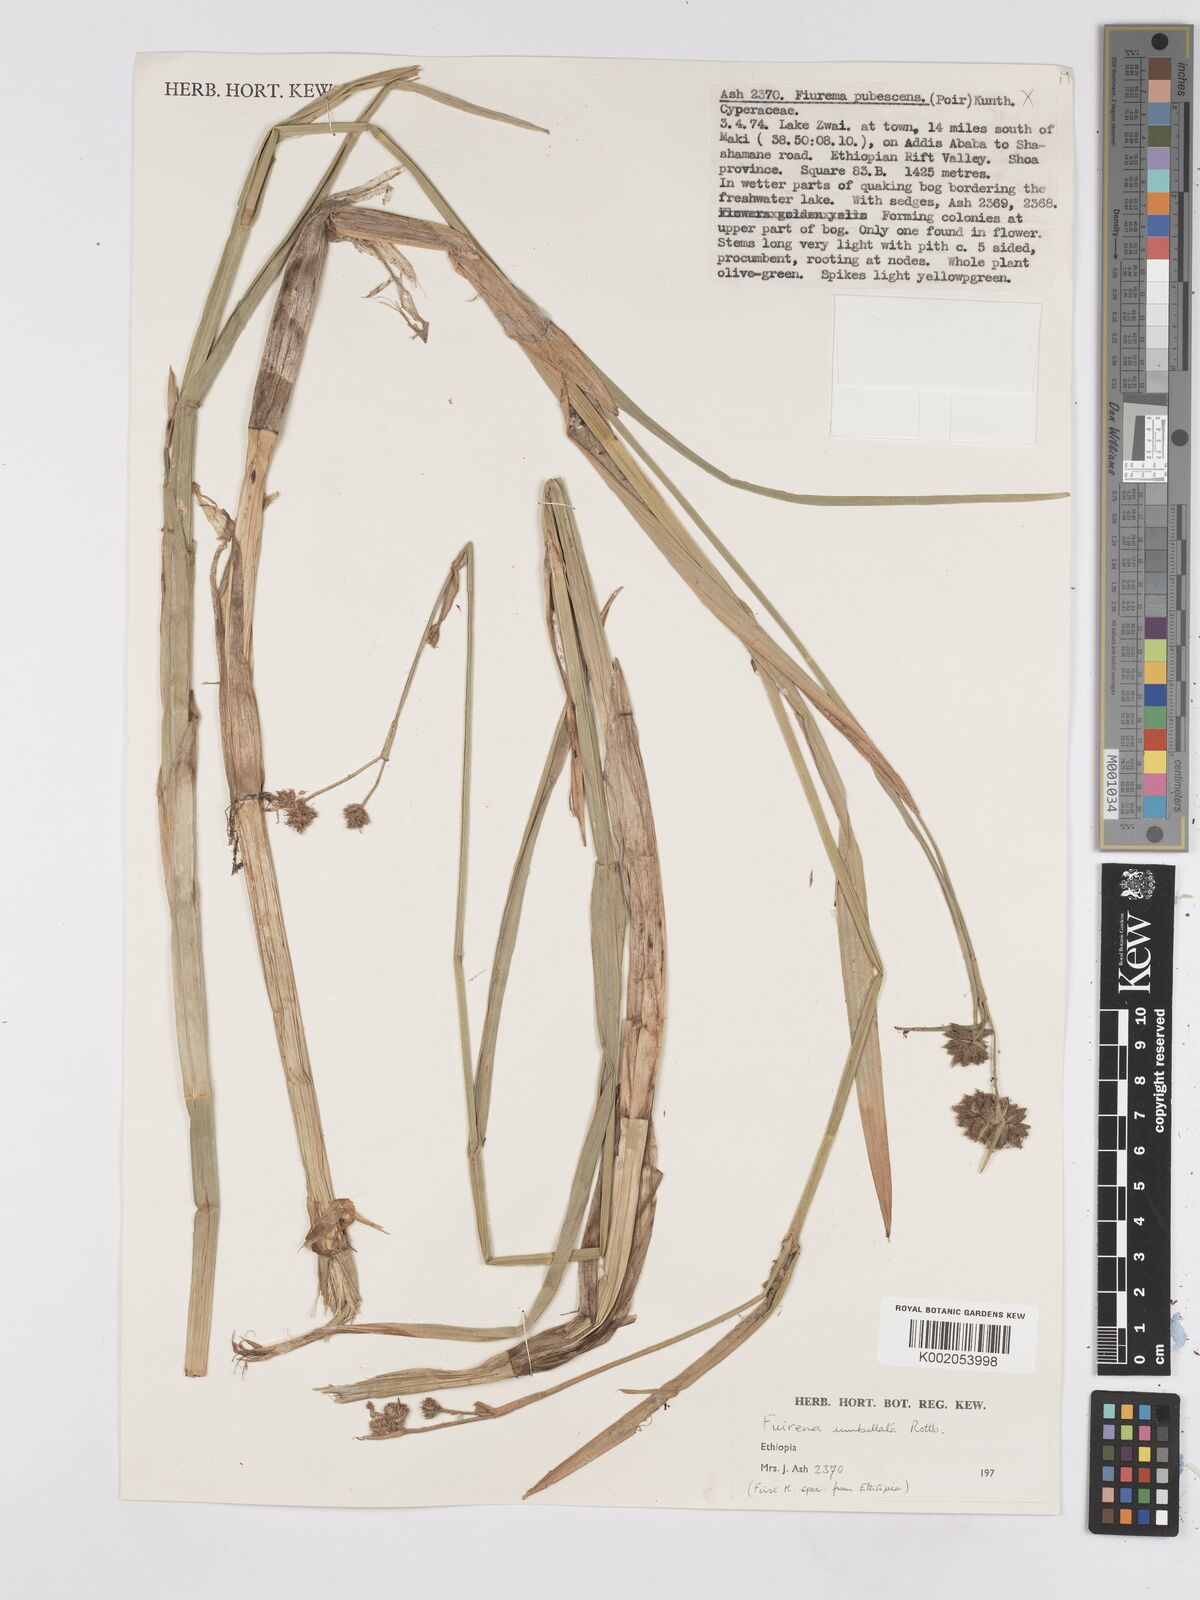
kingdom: Plantae
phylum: Tracheophyta
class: Liliopsida
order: Poales
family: Cyperaceae
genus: Fuirena
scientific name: Fuirena umbellata
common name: Yefen
